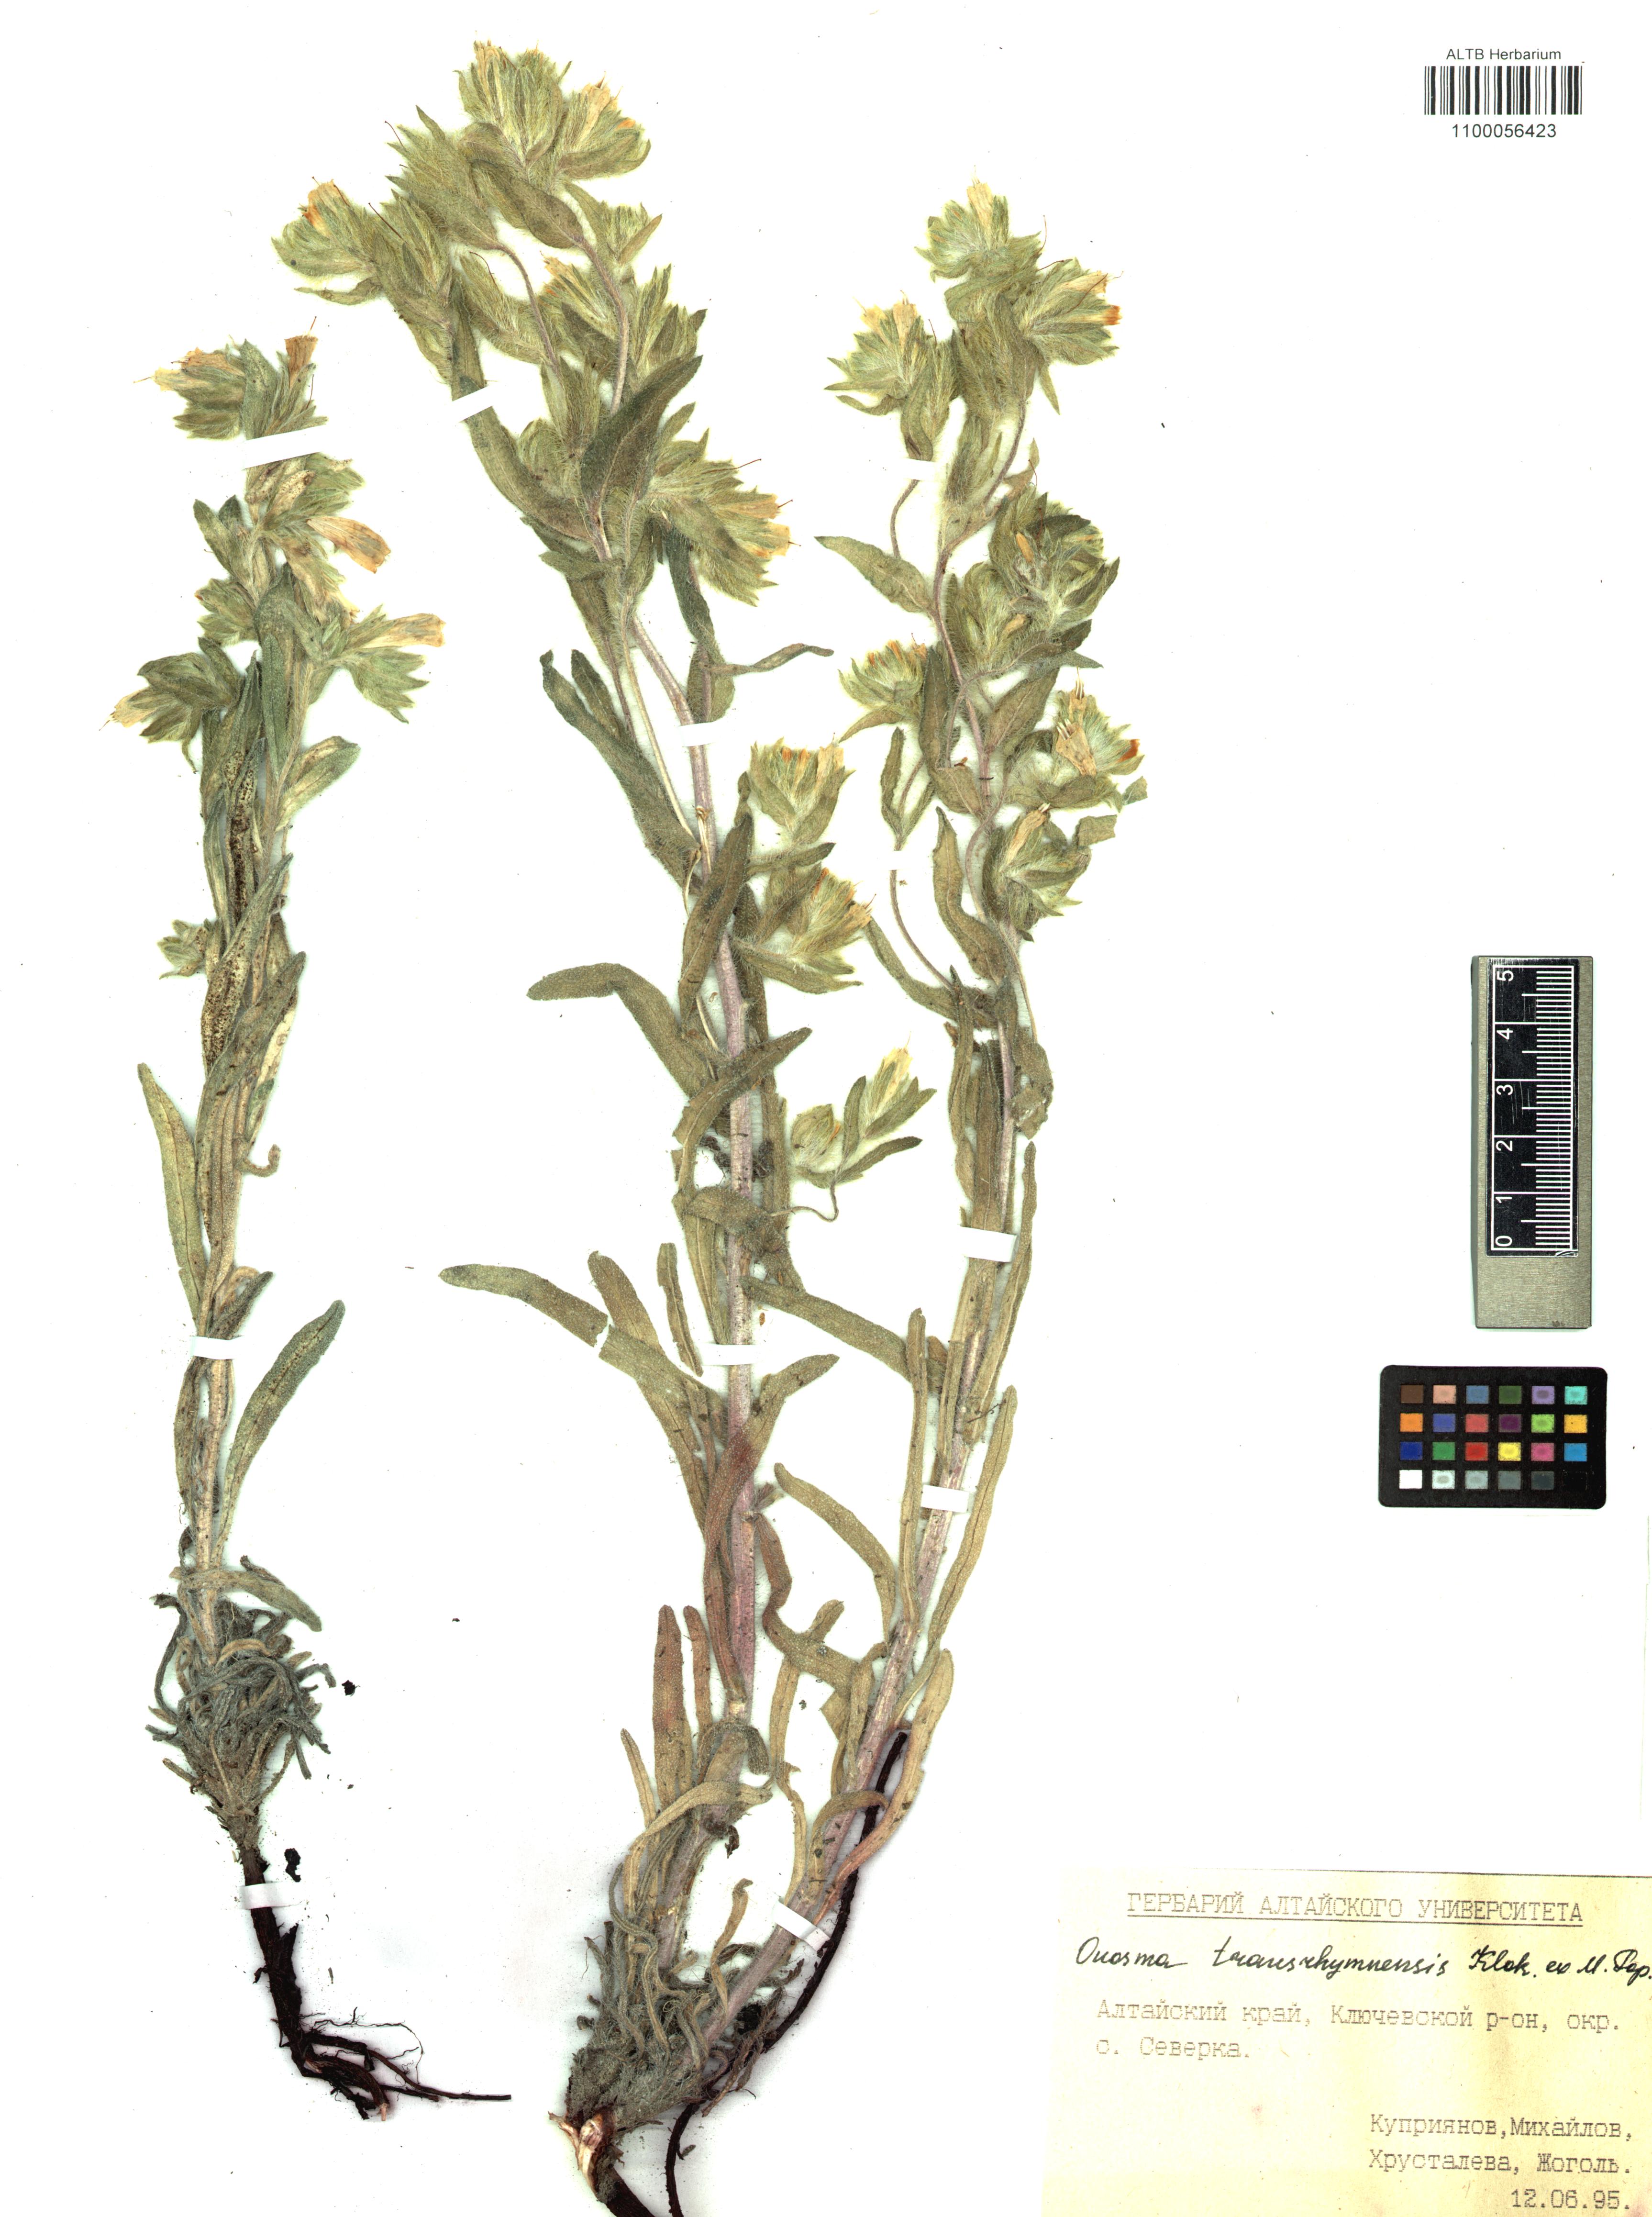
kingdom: Plantae
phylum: Tracheophyta
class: Magnoliopsida
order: Boraginales
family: Boraginaceae
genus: Onosma
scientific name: Onosma transrhymnensis
